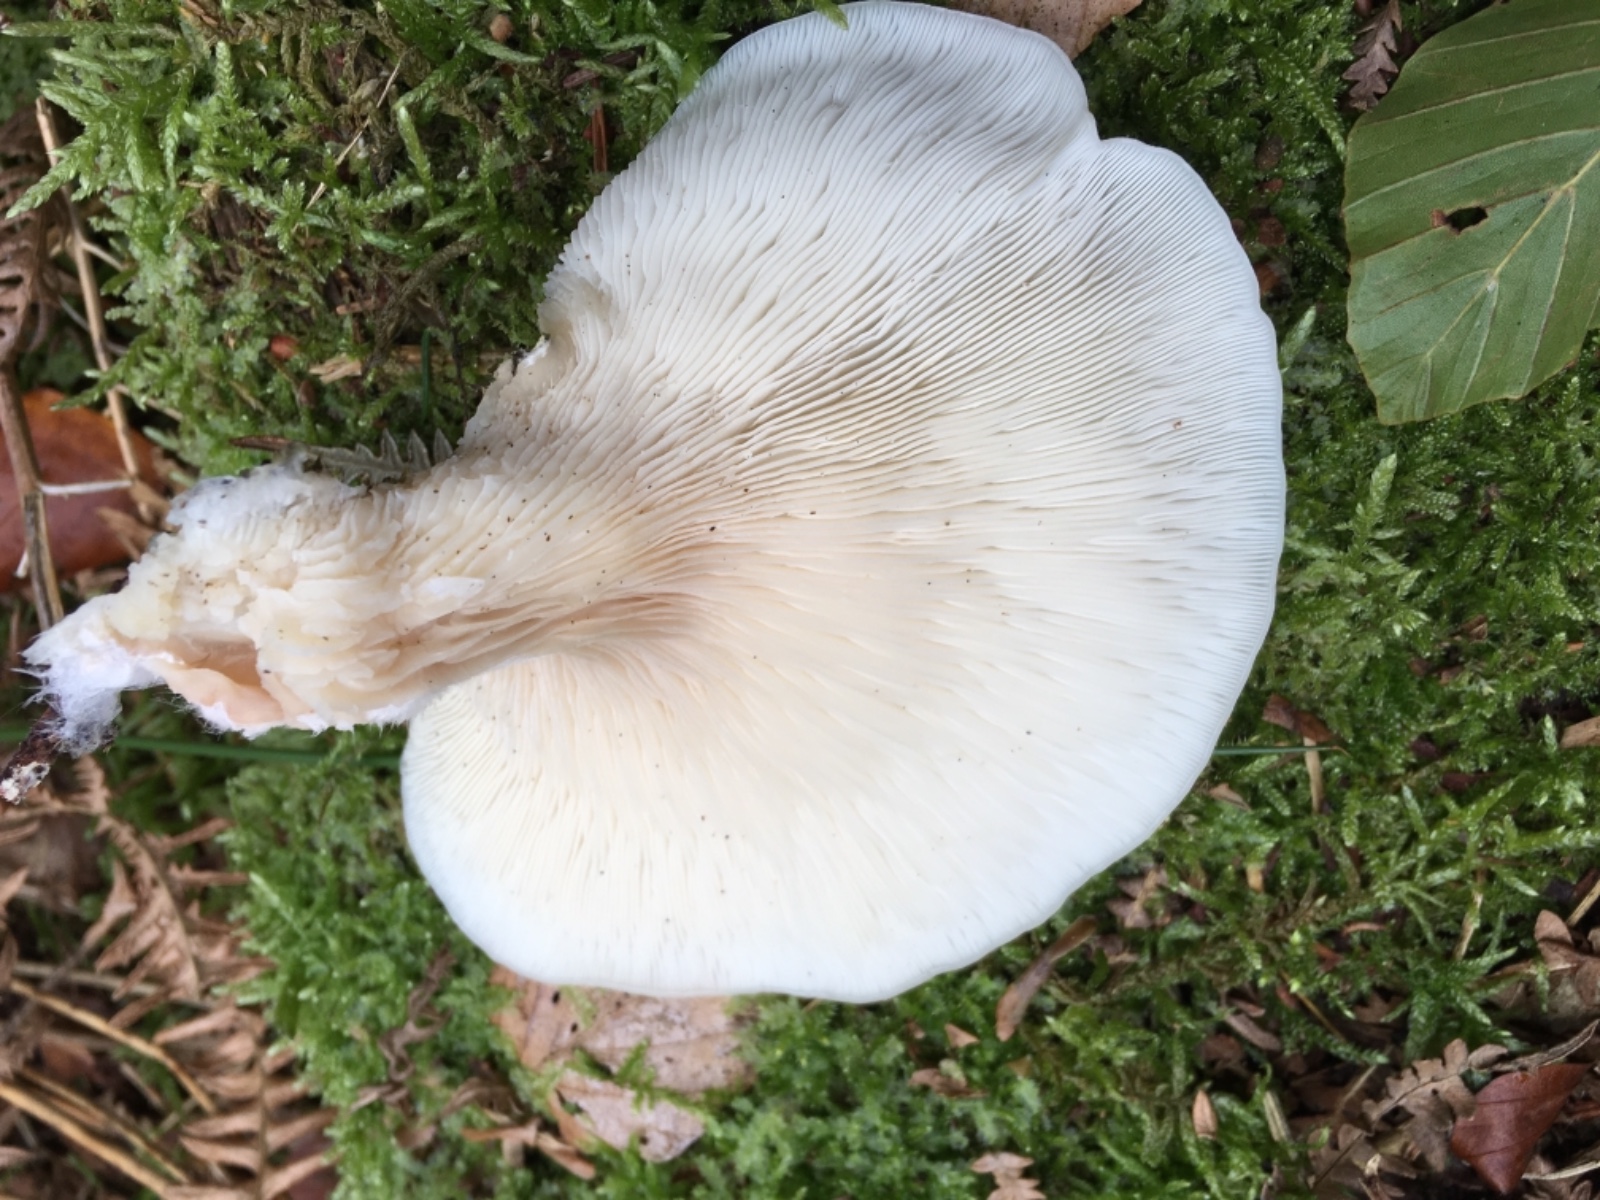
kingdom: Fungi
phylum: Basidiomycota
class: Agaricomycetes
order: Agaricales
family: Marasmiaceae
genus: Pleurocybella
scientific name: Pleurocybella porrigens
